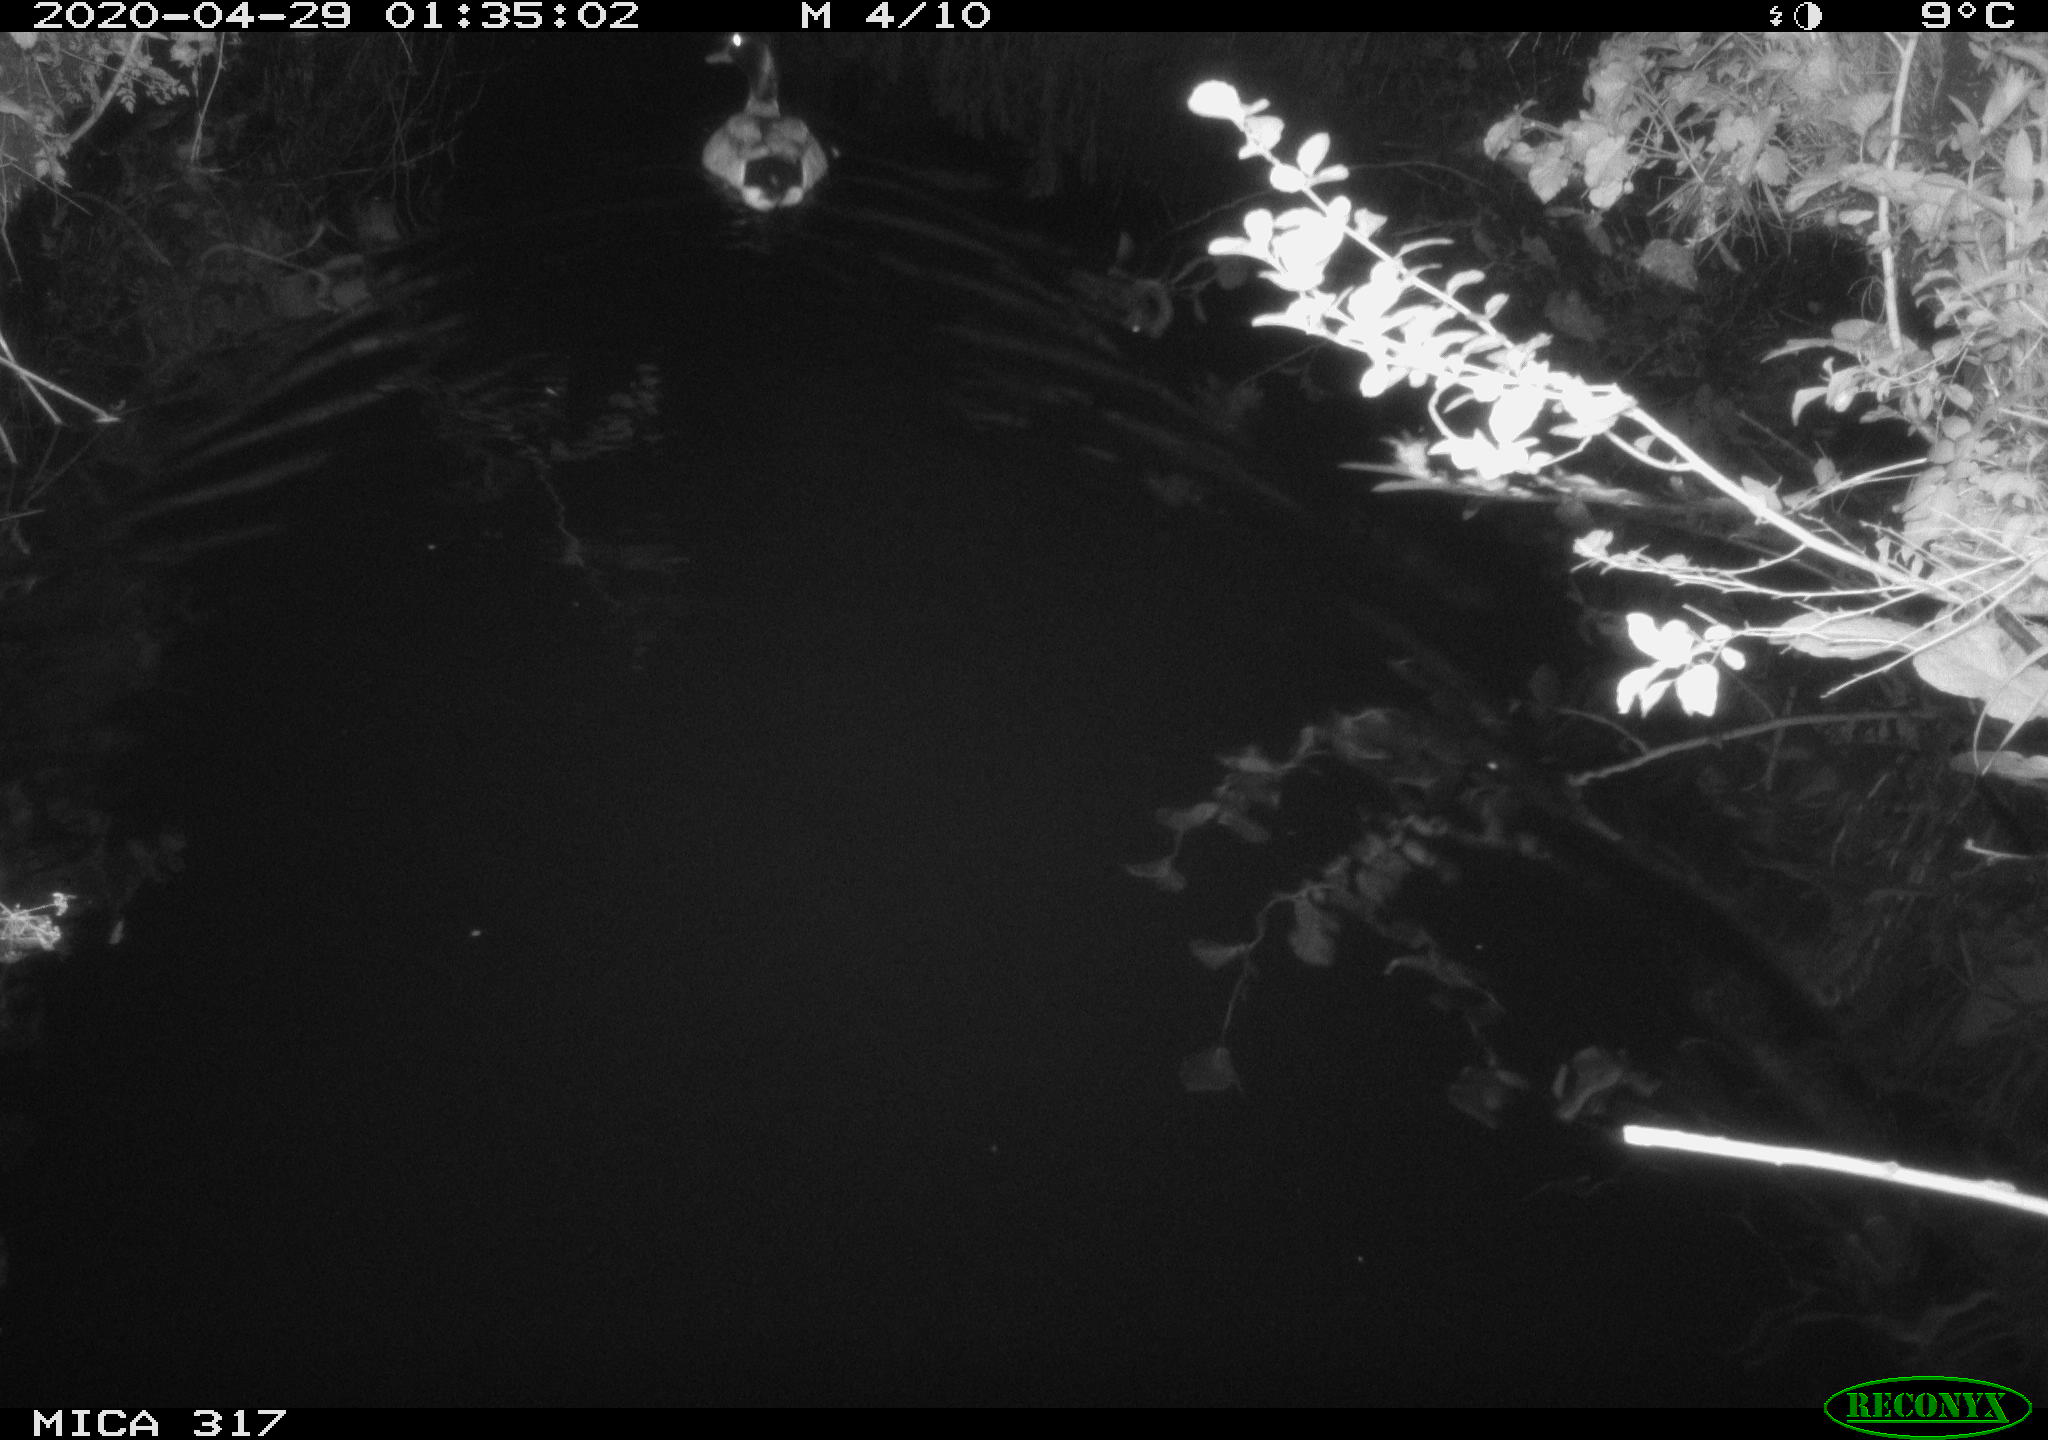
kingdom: Animalia
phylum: Chordata
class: Aves
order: Anseriformes
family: Anatidae
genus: Anas
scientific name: Anas platyrhynchos
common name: Mallard
